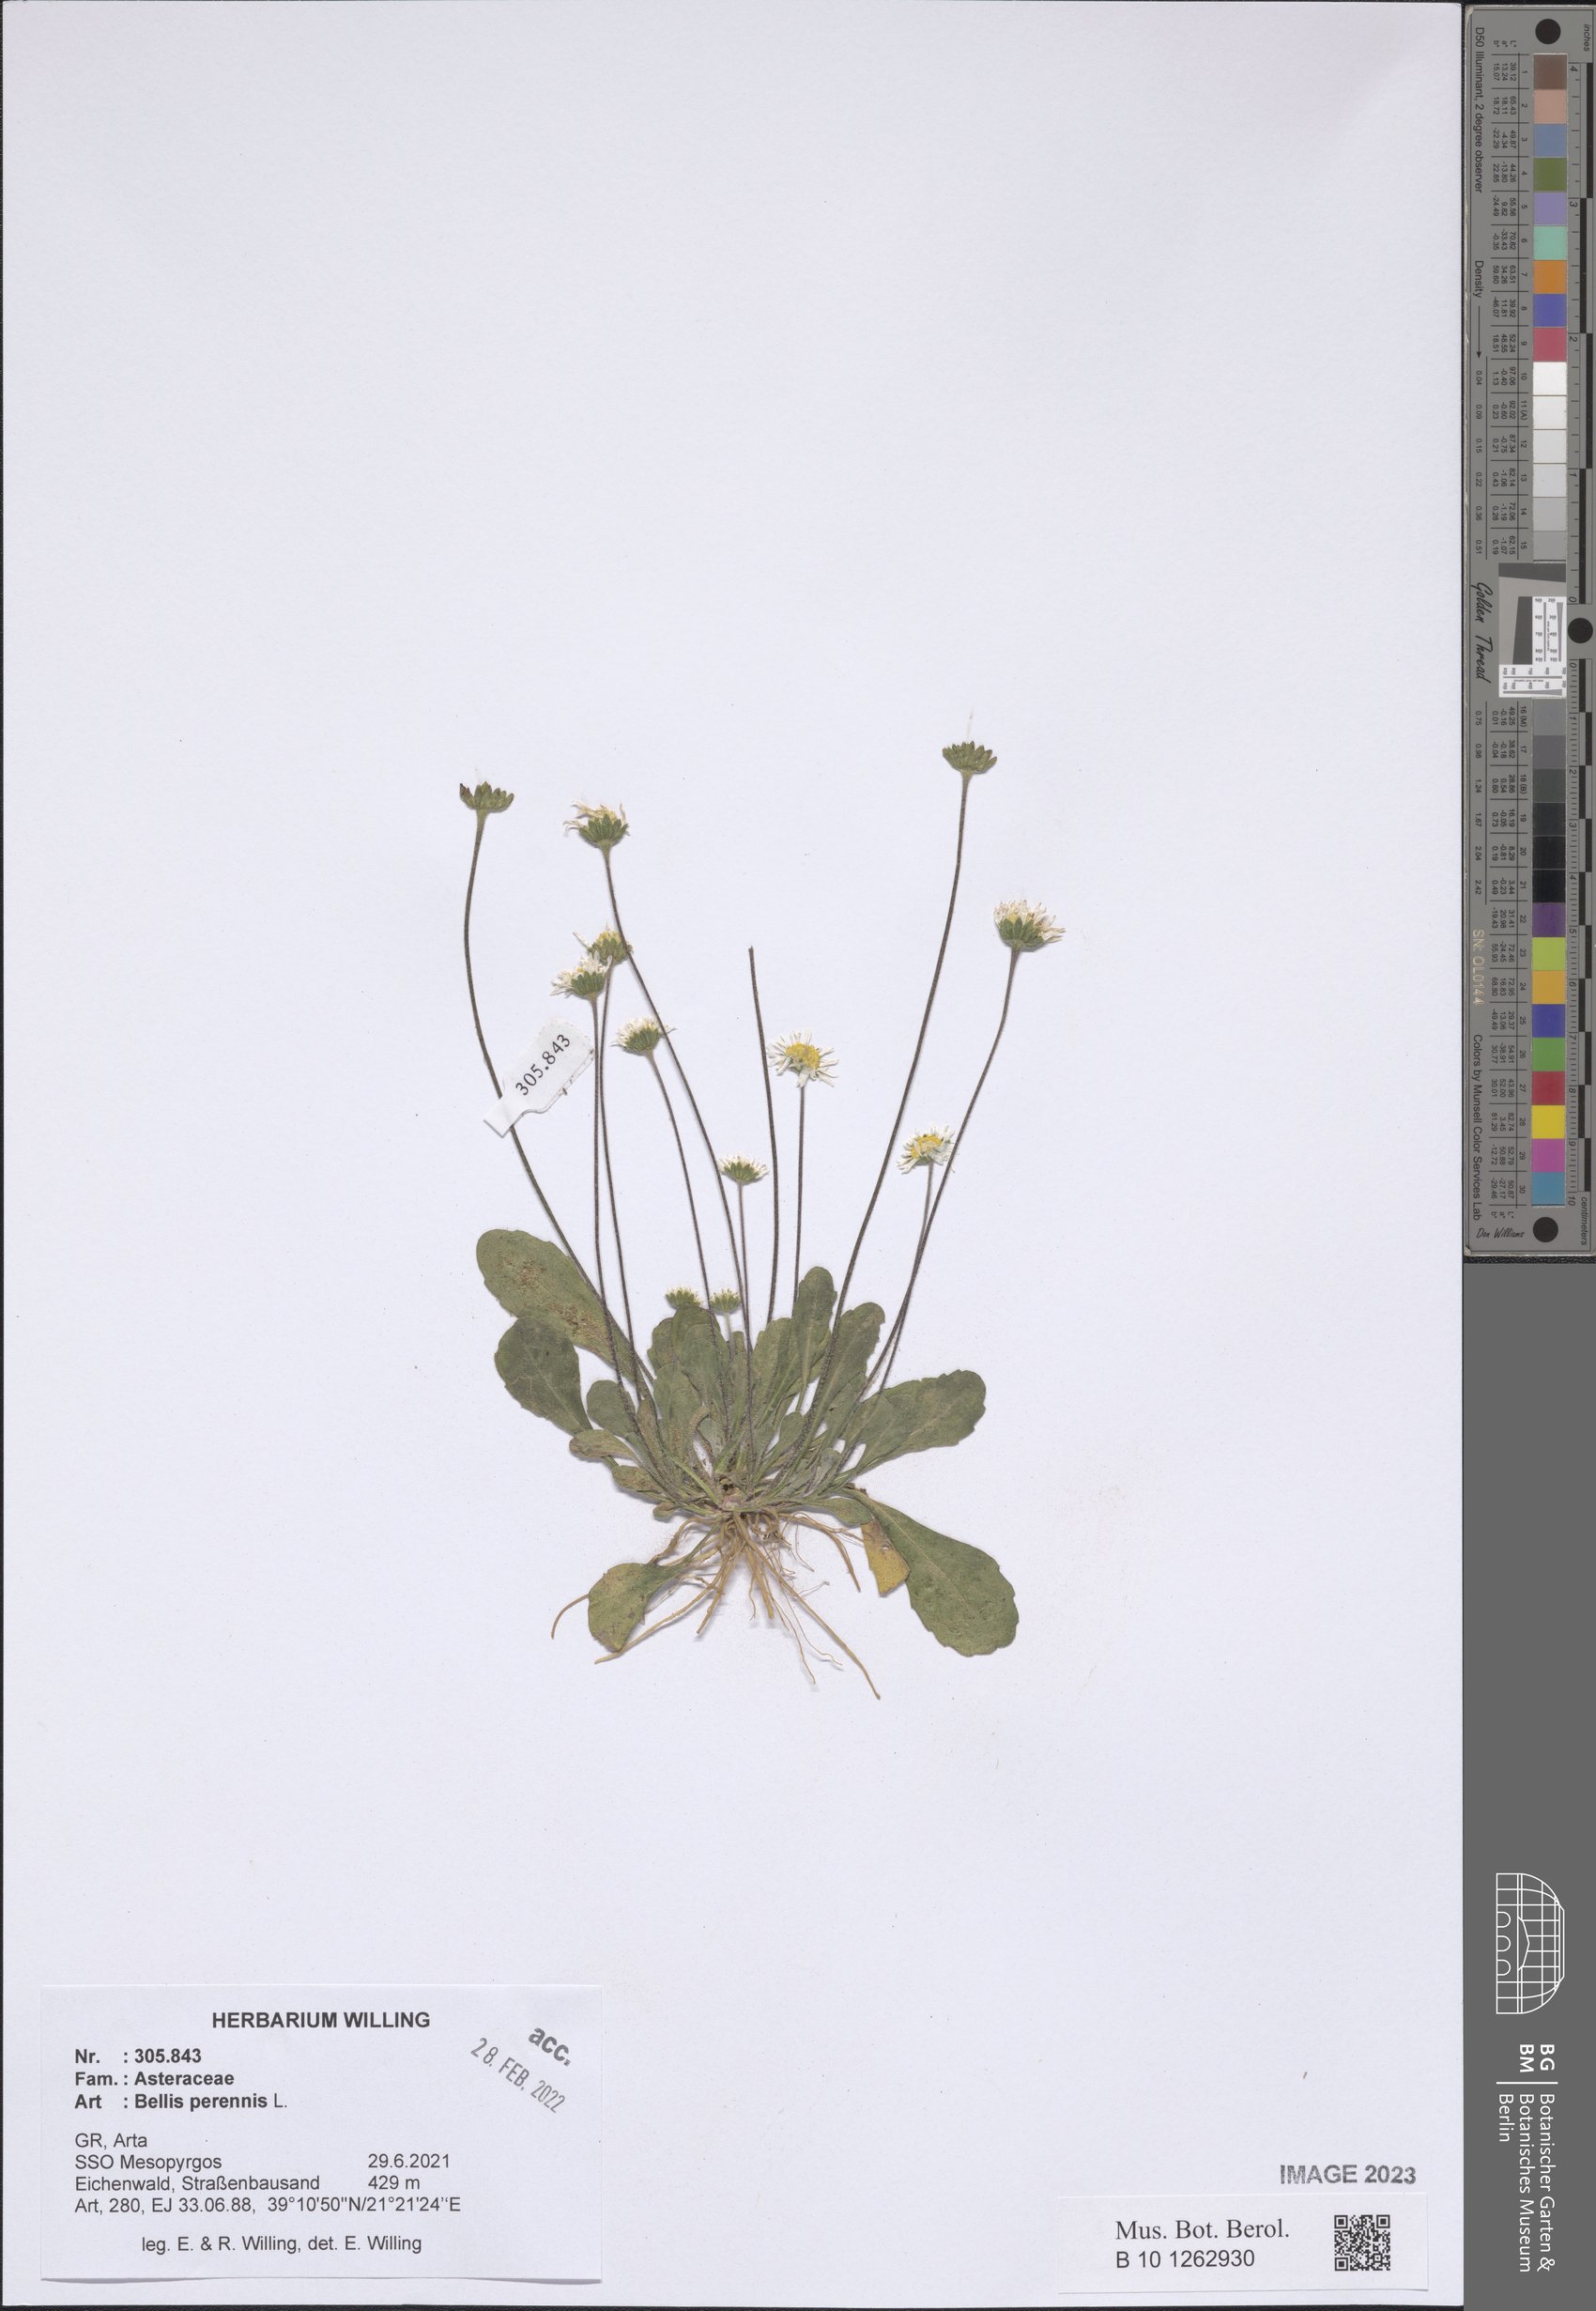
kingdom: Plantae
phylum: Tracheophyta
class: Magnoliopsida
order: Asterales
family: Asteraceae
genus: Bellis
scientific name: Bellis perennis
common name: Lawndaisy
